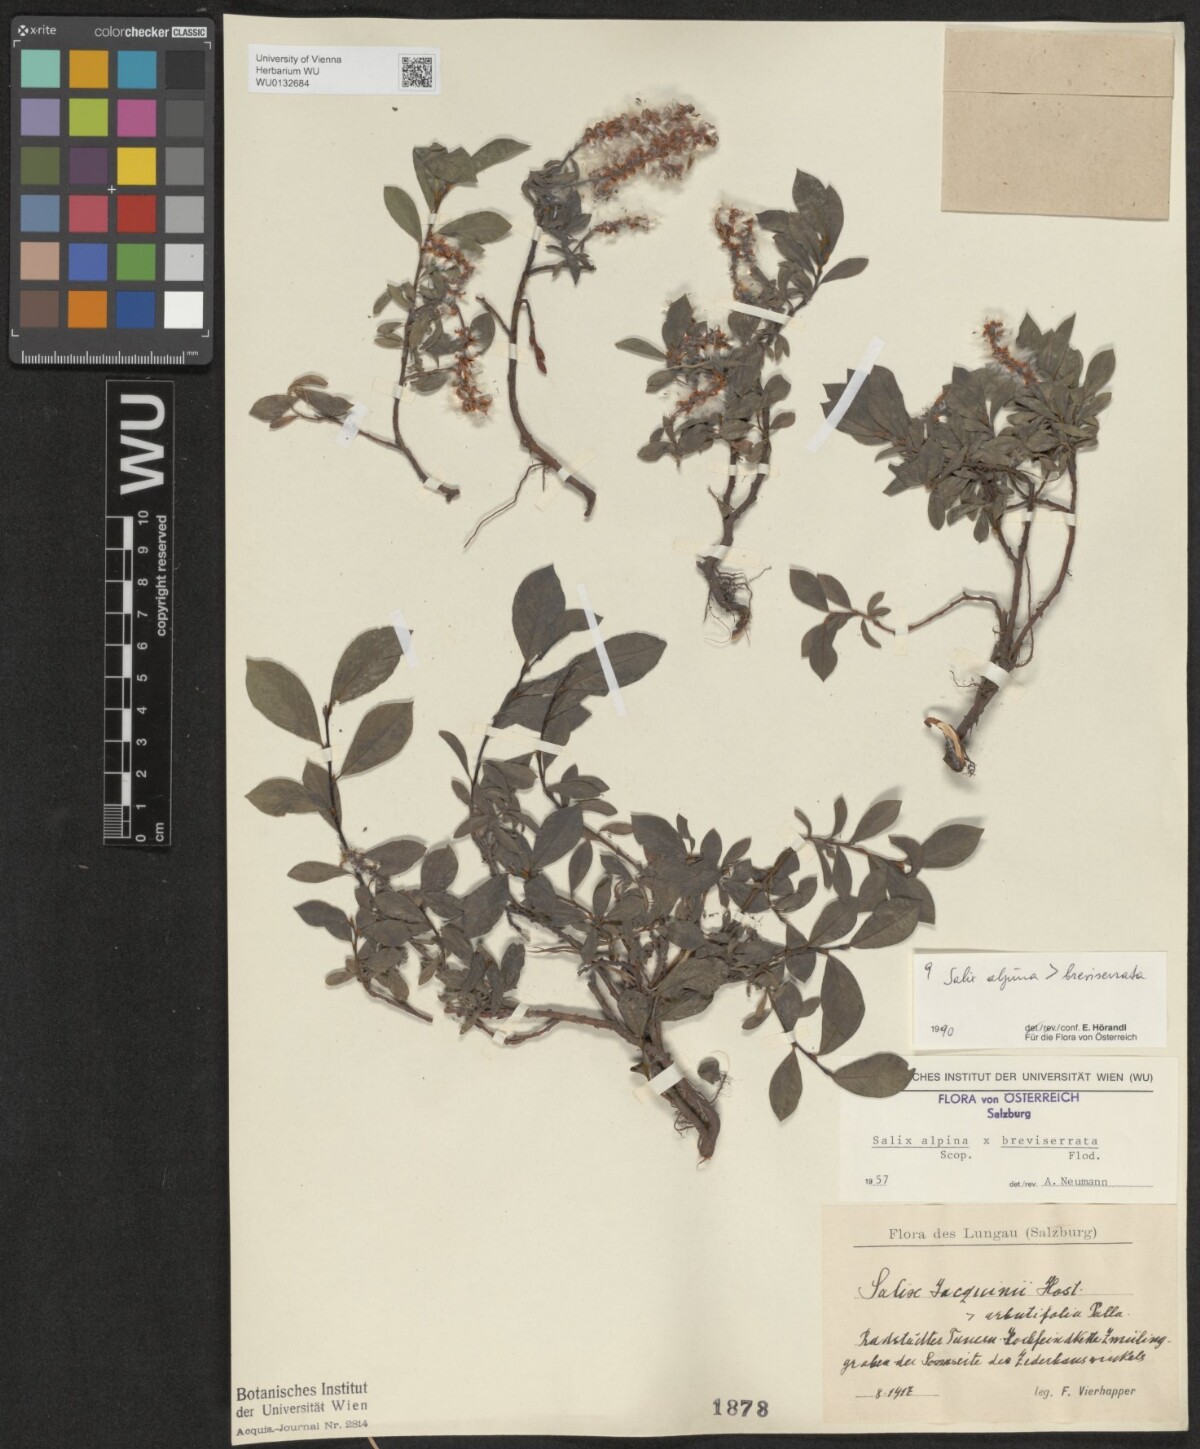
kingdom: Plantae
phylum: Tracheophyta
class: Magnoliopsida
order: Malpighiales
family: Salicaceae
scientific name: Salicaceae
